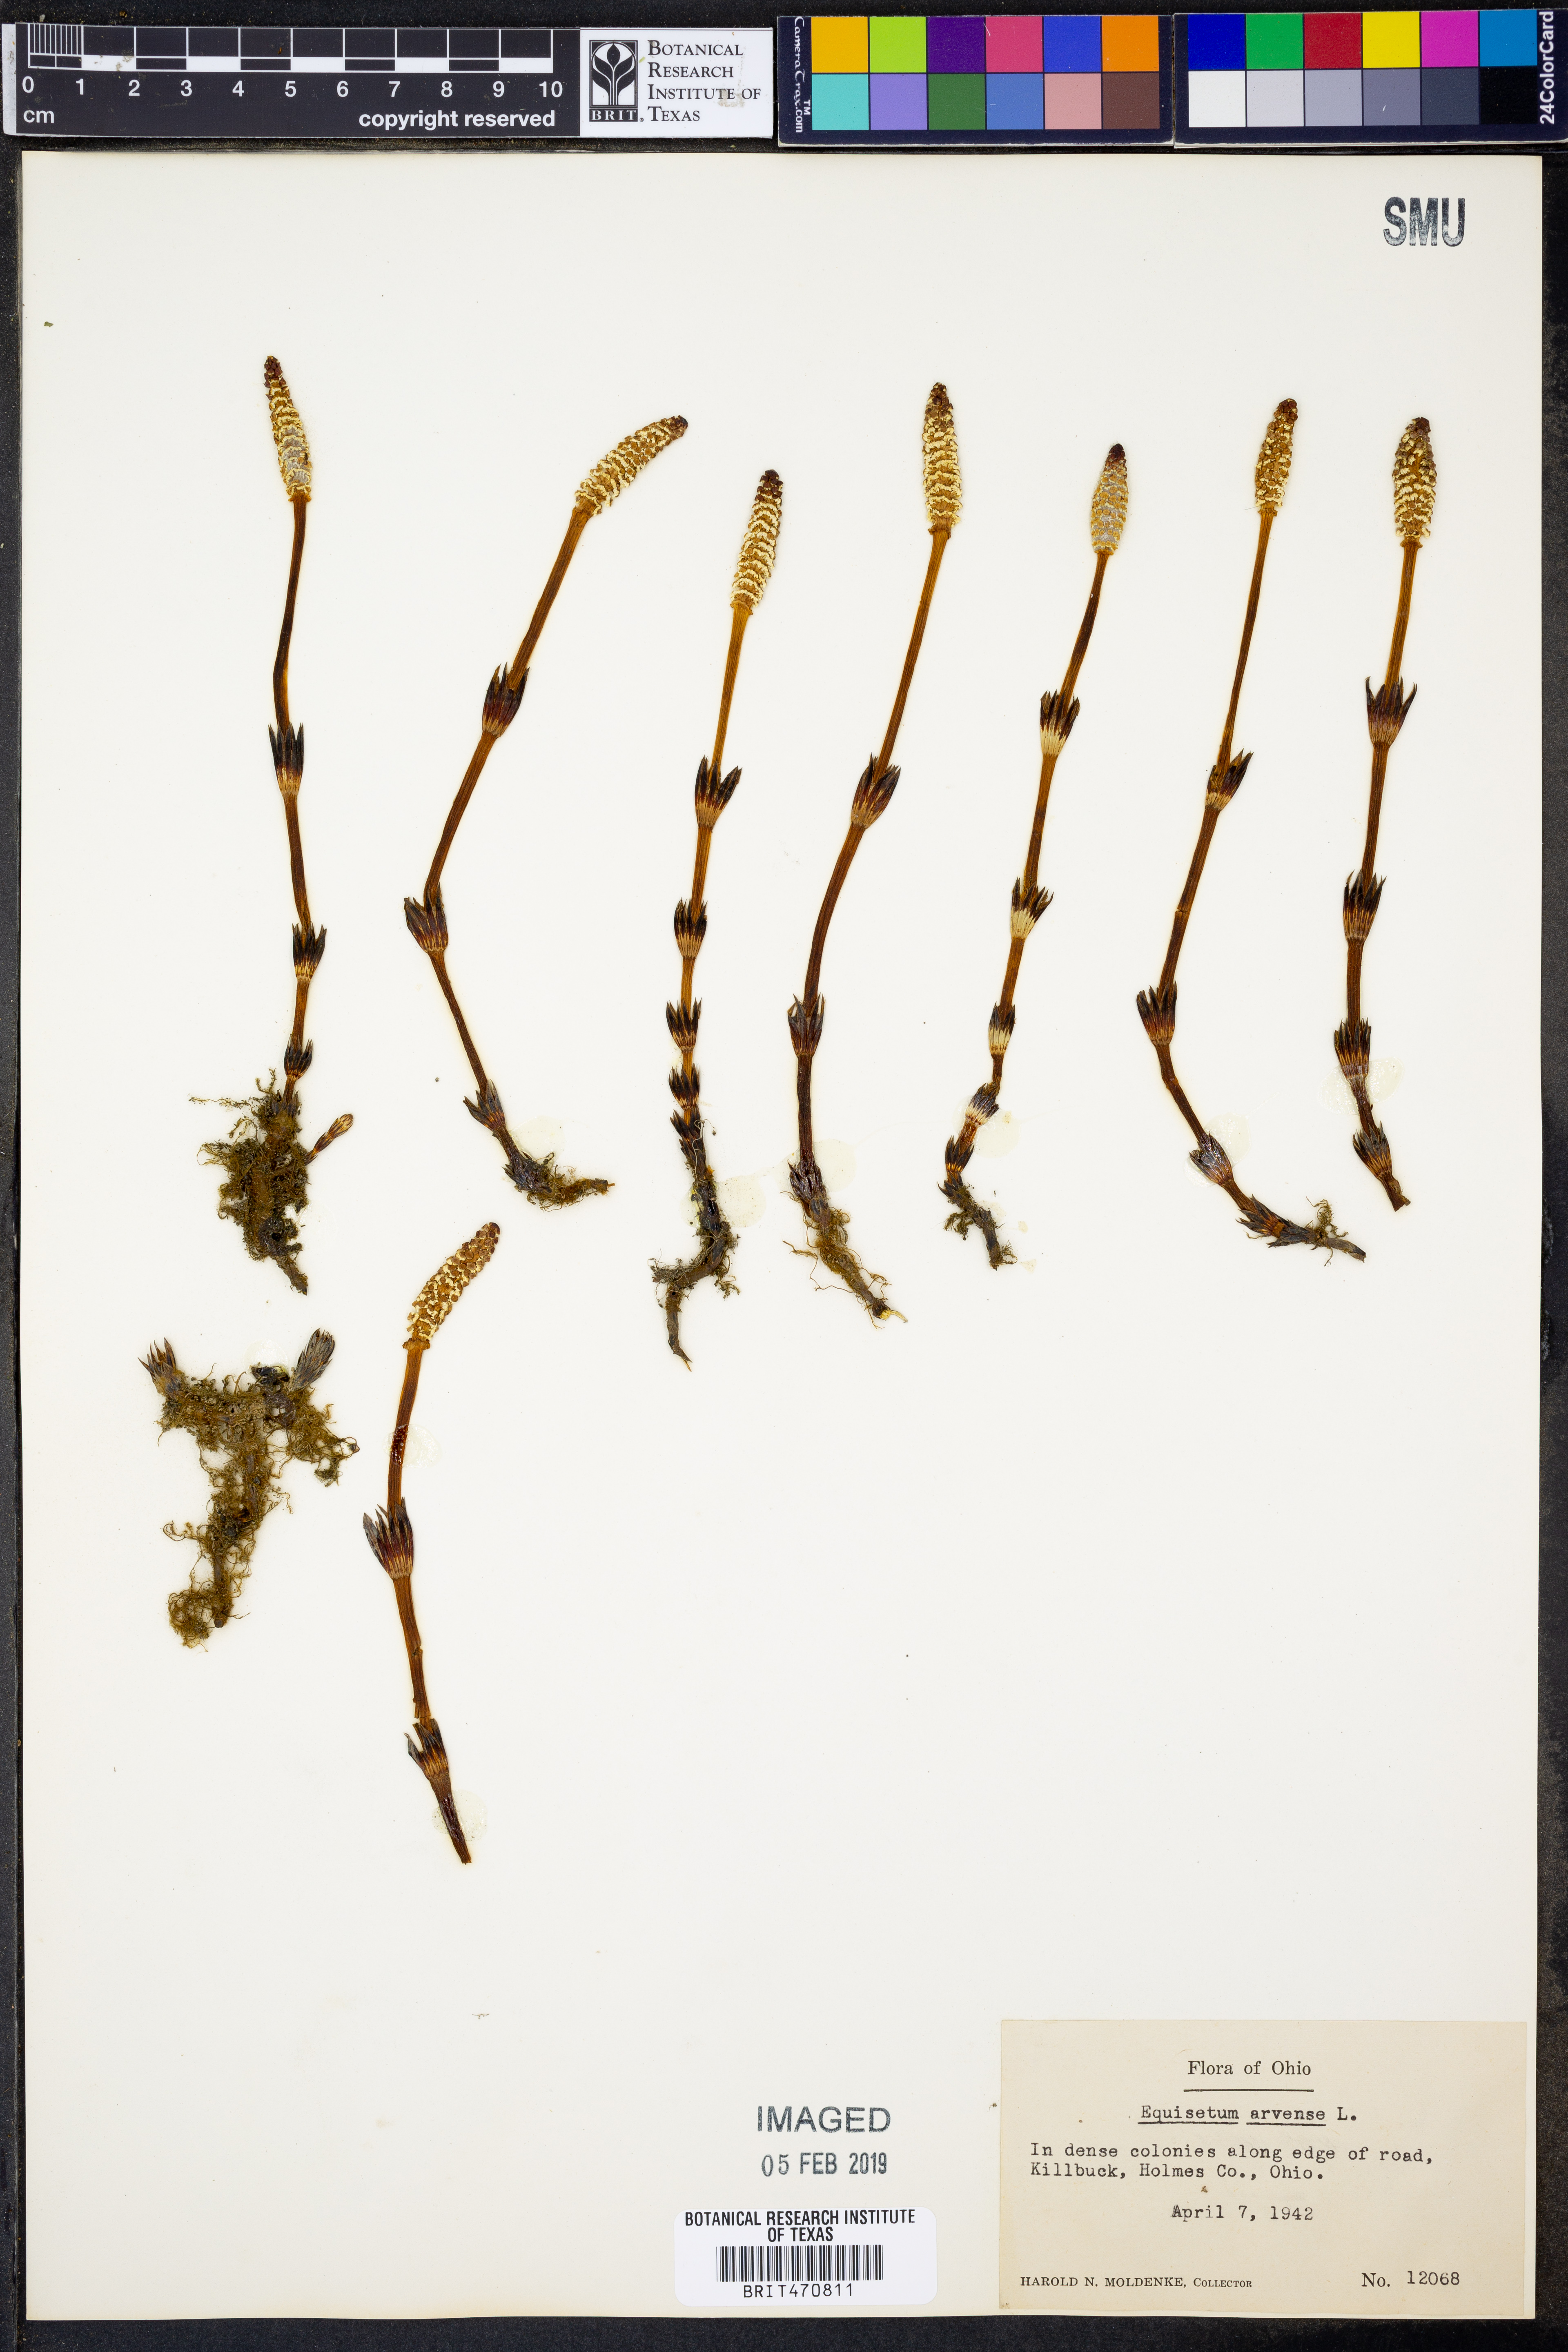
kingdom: Plantae
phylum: Tracheophyta
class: Polypodiopsida
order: Equisetales
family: Equisetaceae
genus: Equisetum
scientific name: Equisetum arvense
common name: Field horsetail
